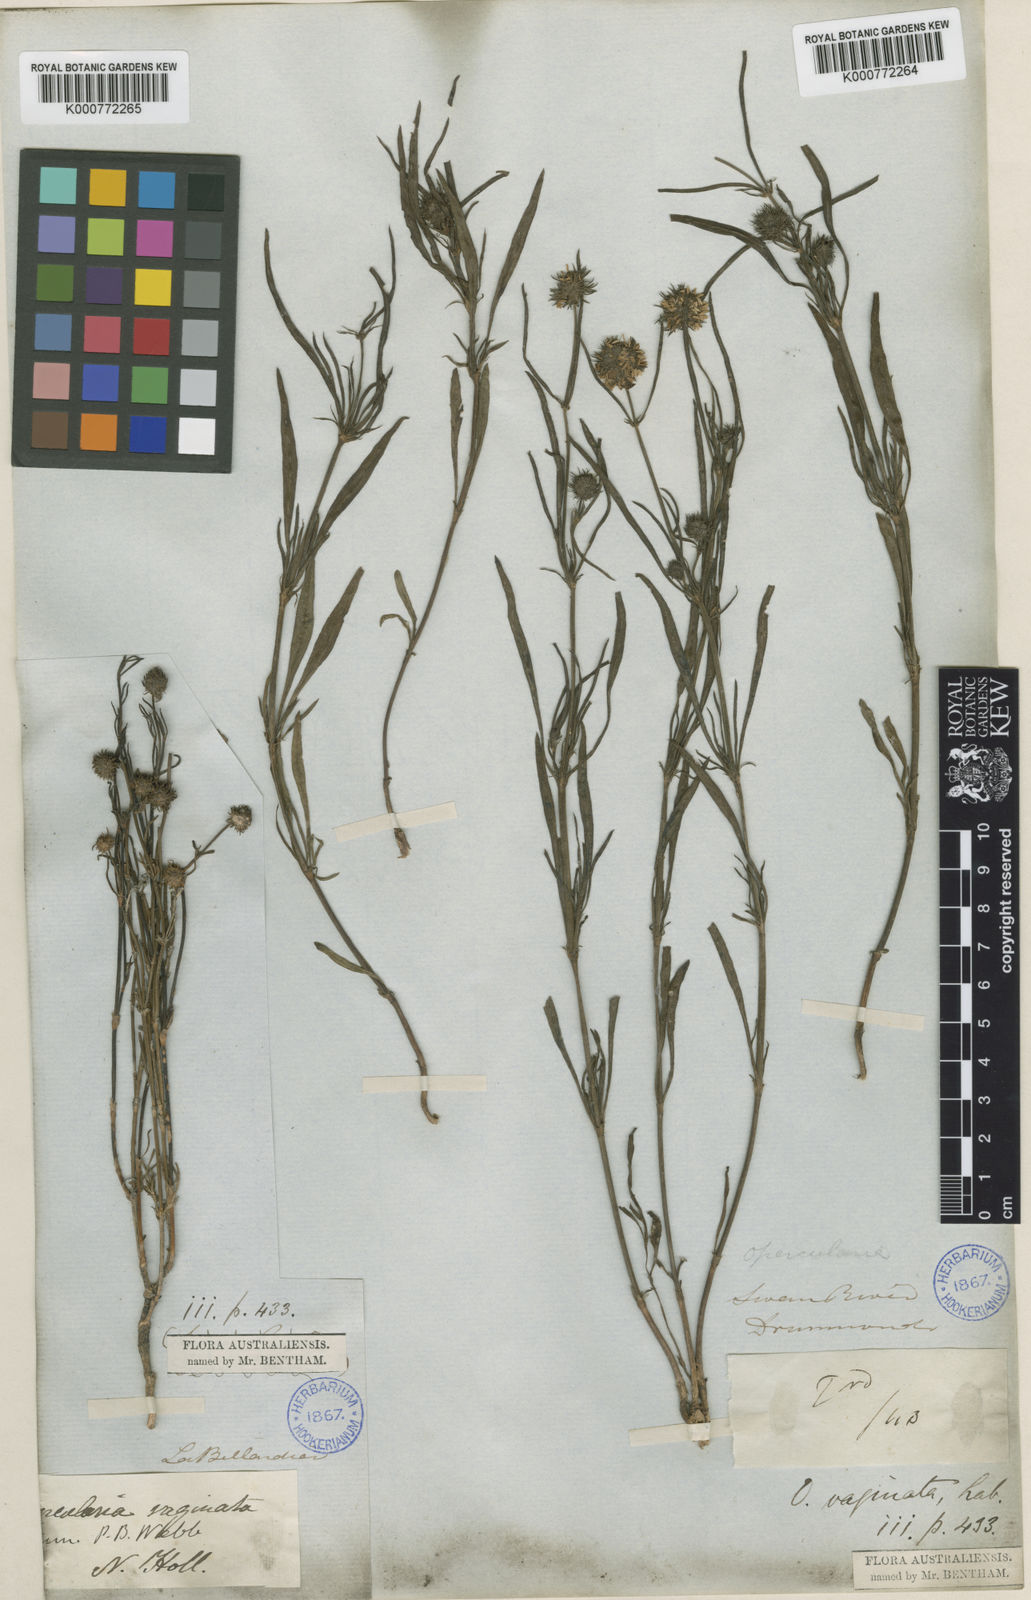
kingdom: Plantae
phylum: Tracheophyta
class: Magnoliopsida
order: Gentianales
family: Rubiaceae
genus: Opercularia
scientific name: Opercularia vaginata
